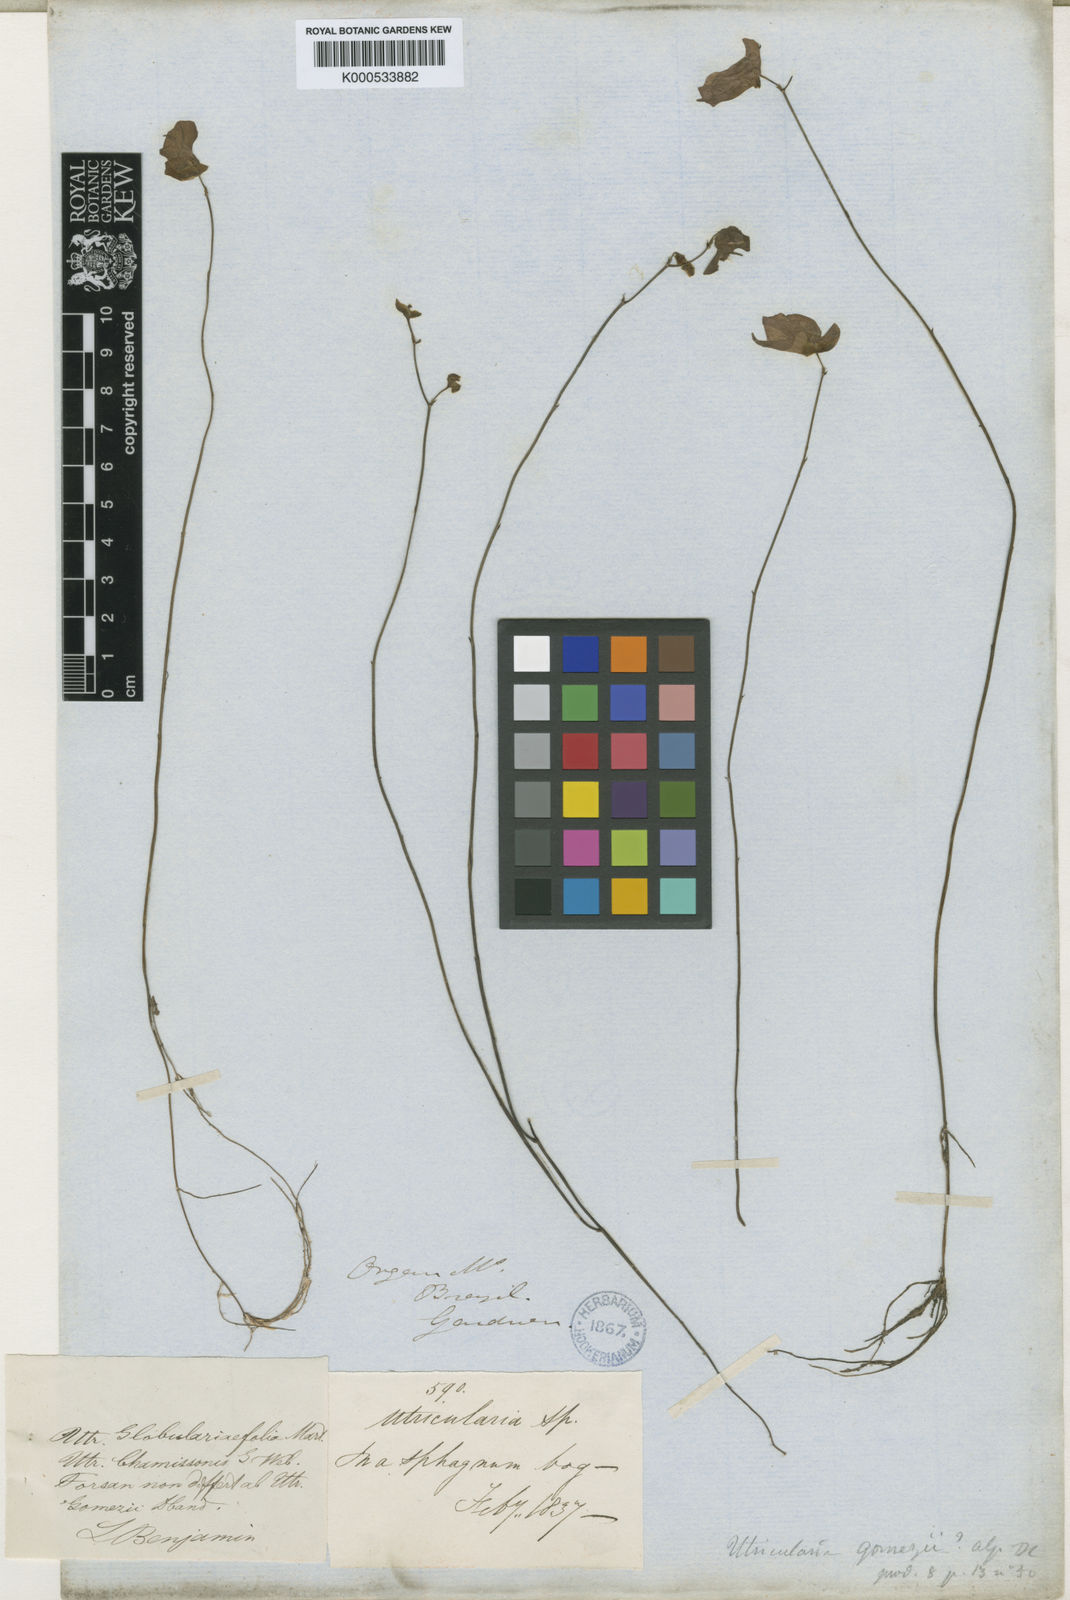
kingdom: Plantae
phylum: Tracheophyta
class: Magnoliopsida
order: Lamiales
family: Lentibulariaceae
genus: Utricularia
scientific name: Utricularia tricolor
